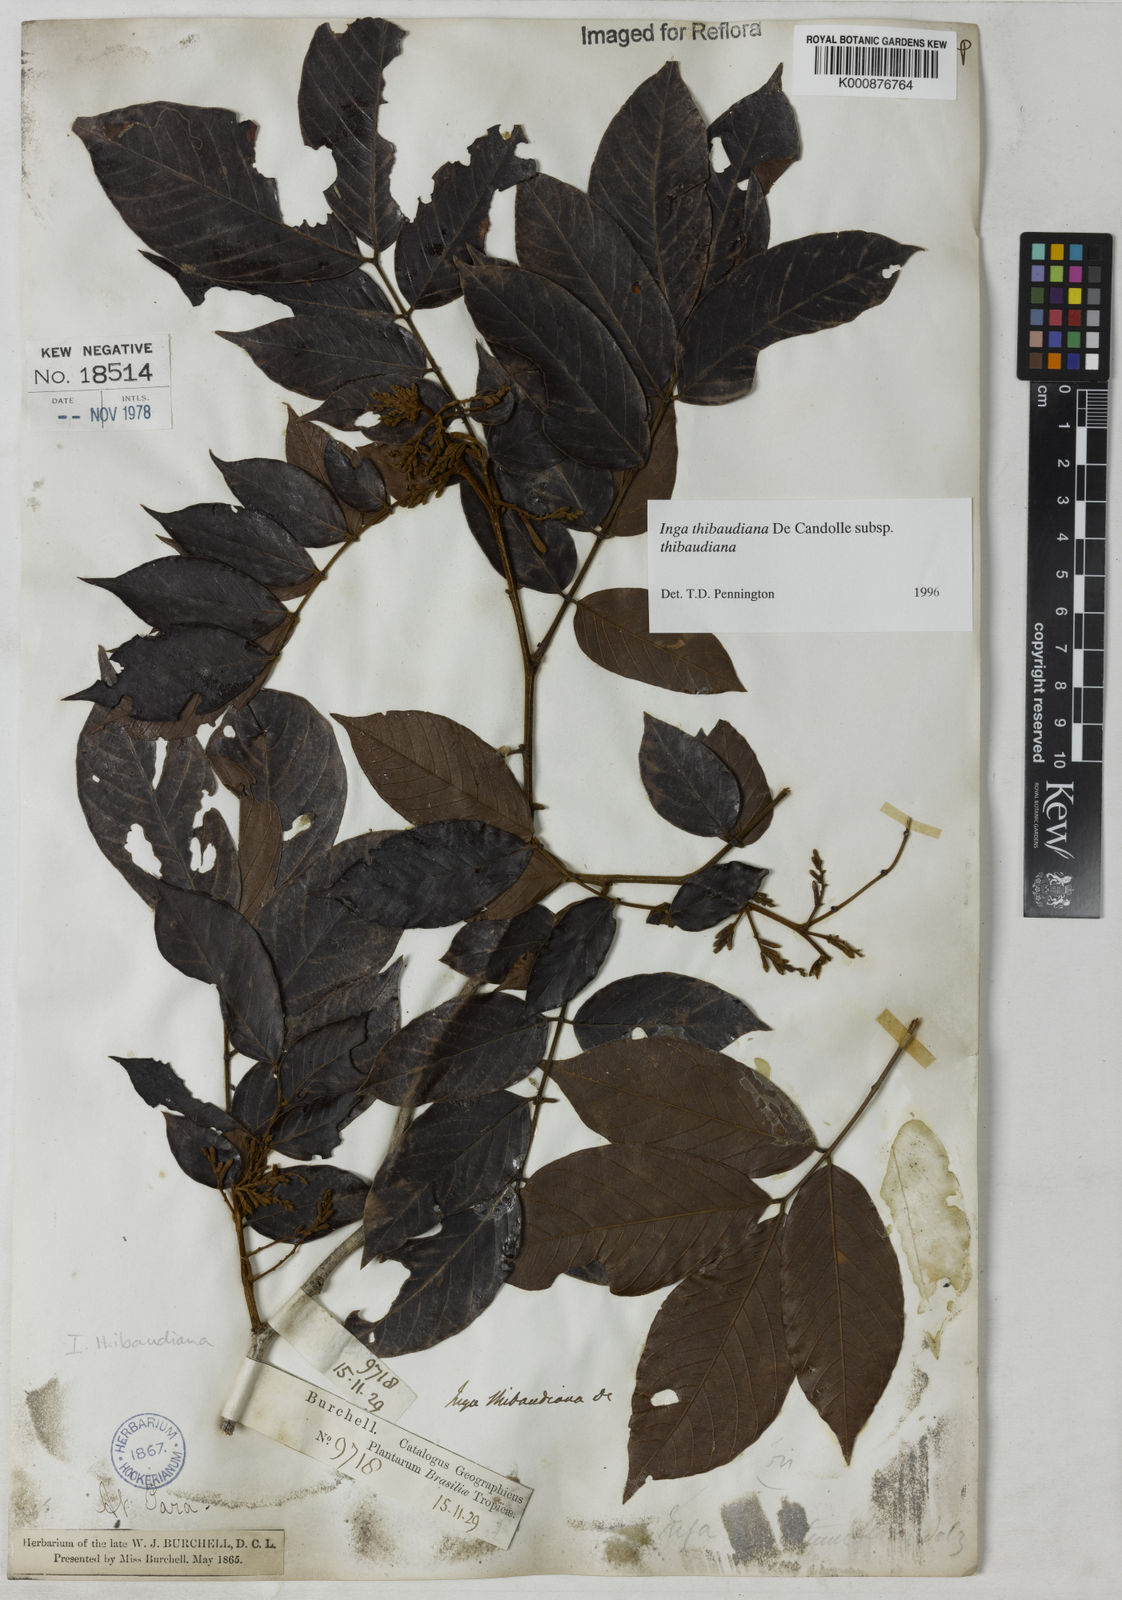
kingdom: Plantae
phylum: Tracheophyta
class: Magnoliopsida
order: Fabales
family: Fabaceae
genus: Inga
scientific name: Inga thibaudiana
